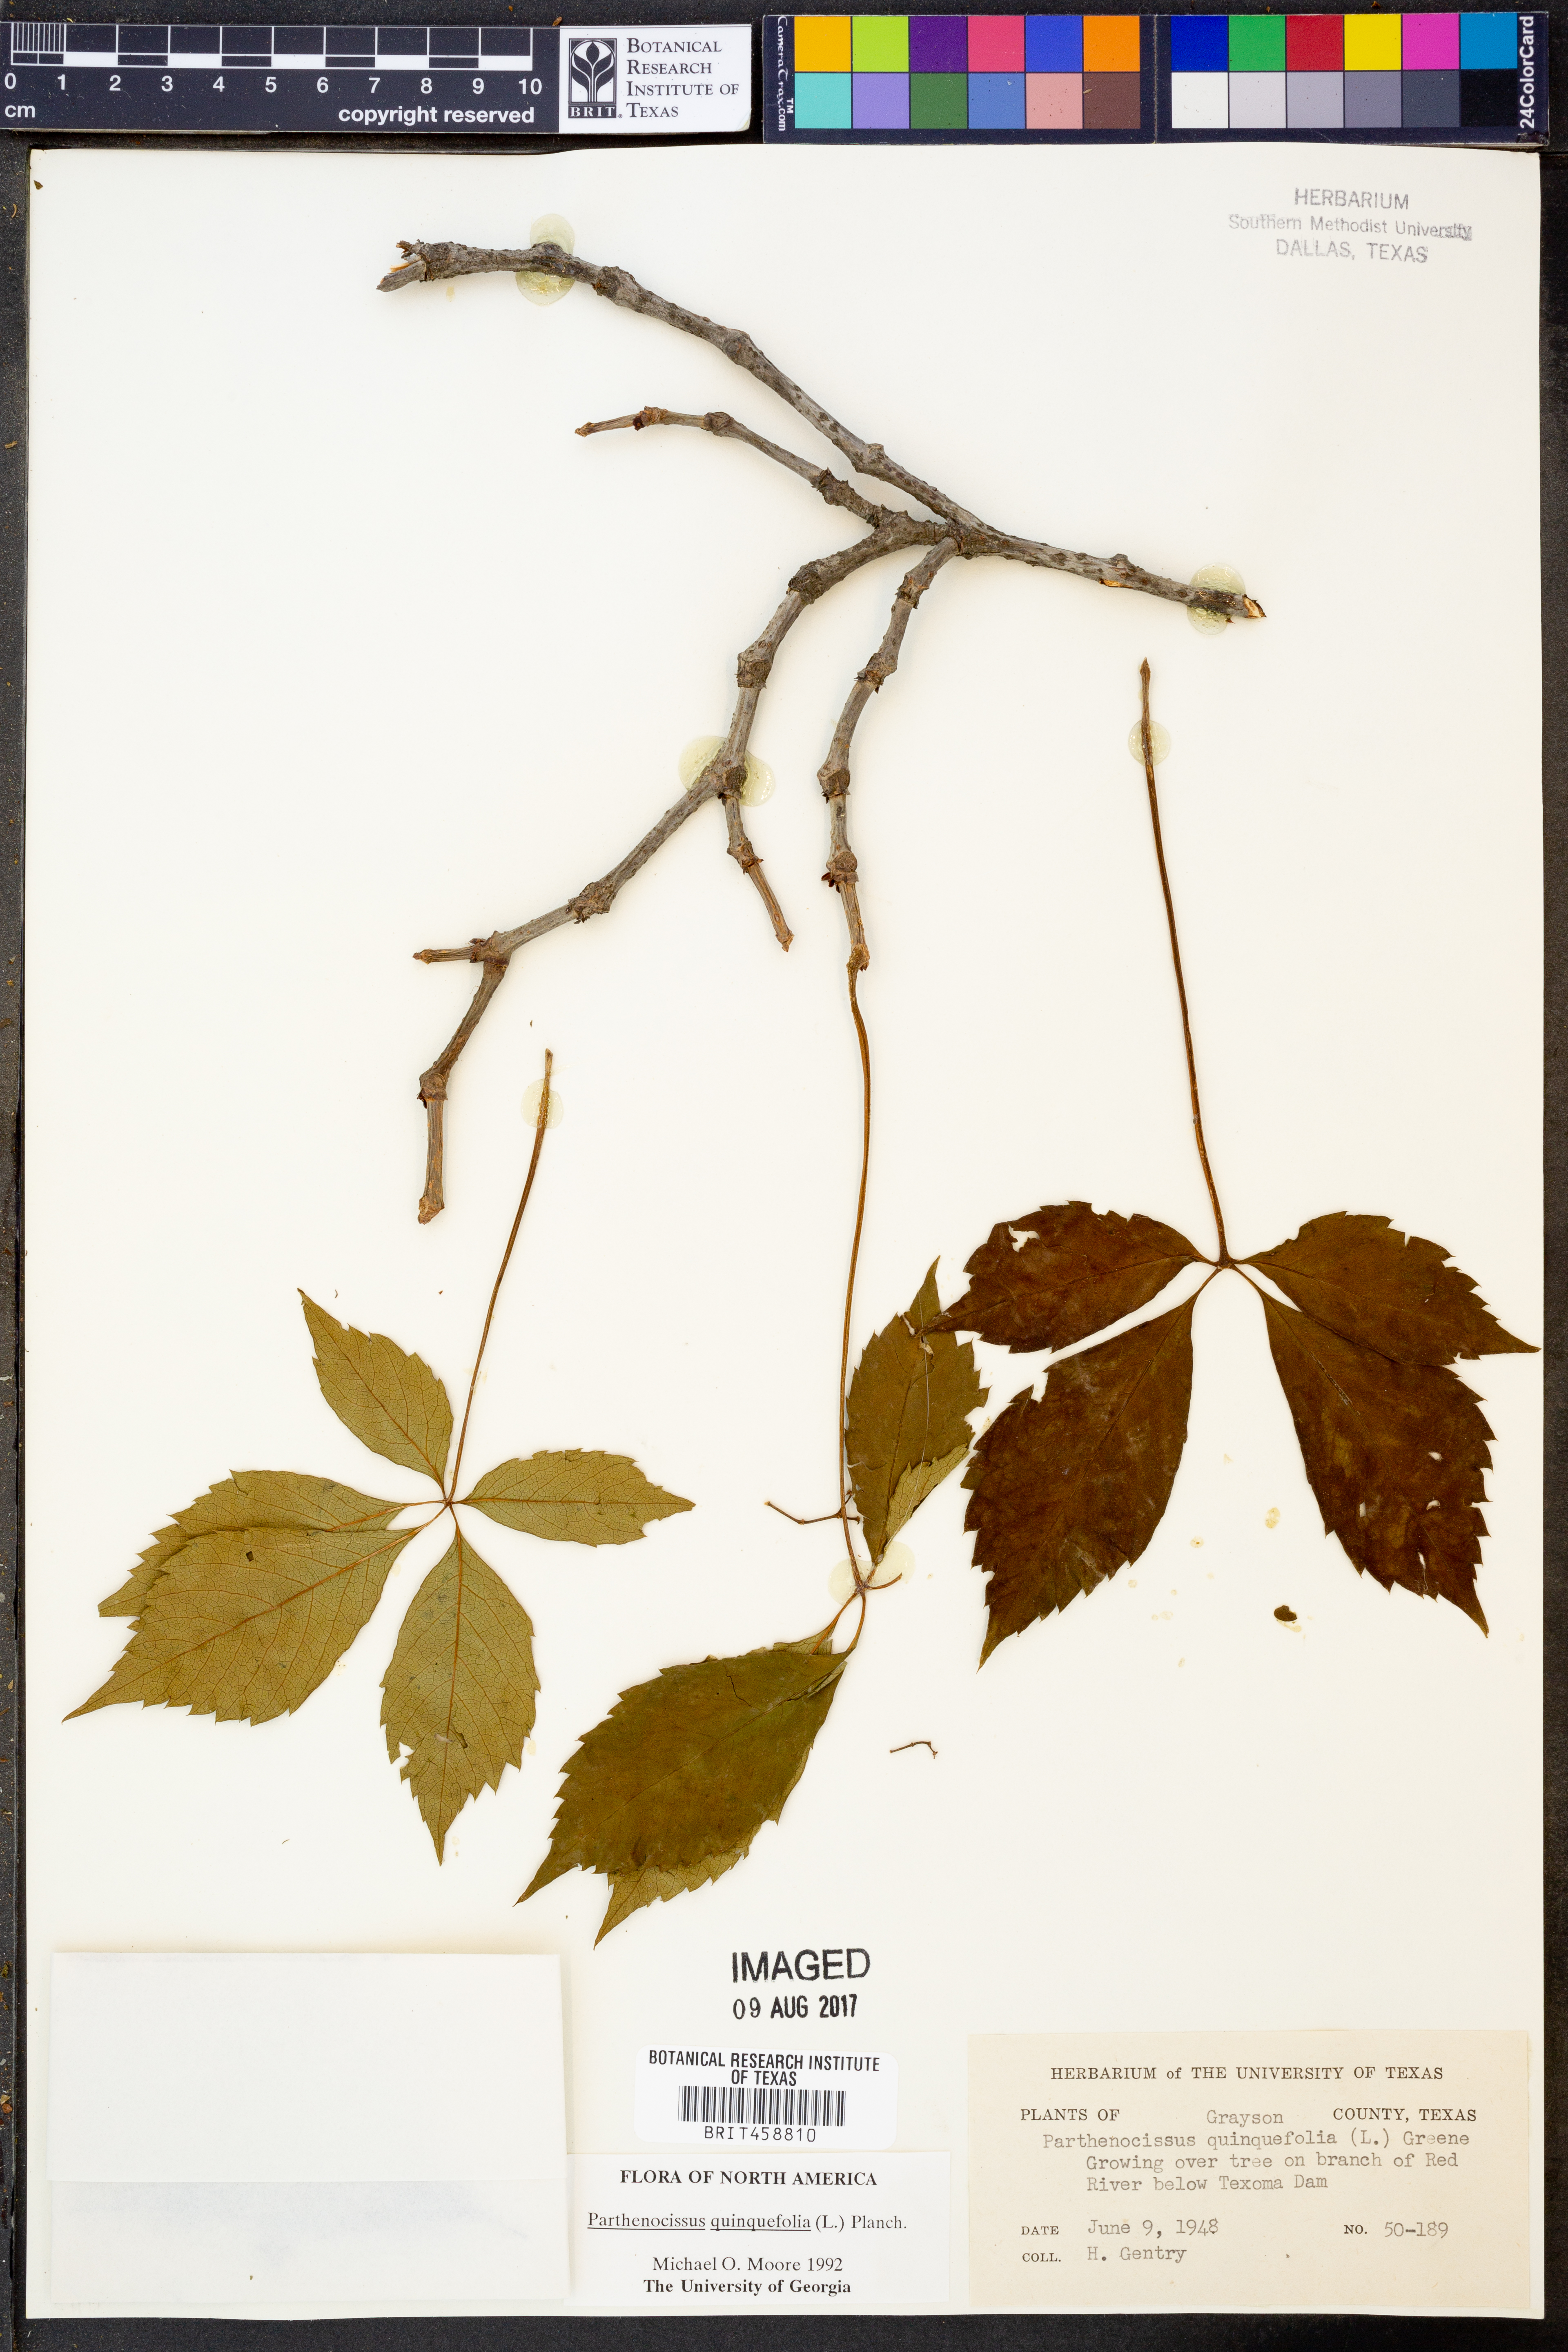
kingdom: Plantae
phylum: Tracheophyta
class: Magnoliopsida
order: Vitales
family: Vitaceae
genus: Parthenocissus
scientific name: Parthenocissus quinquefolia
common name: Virginia-creeper
